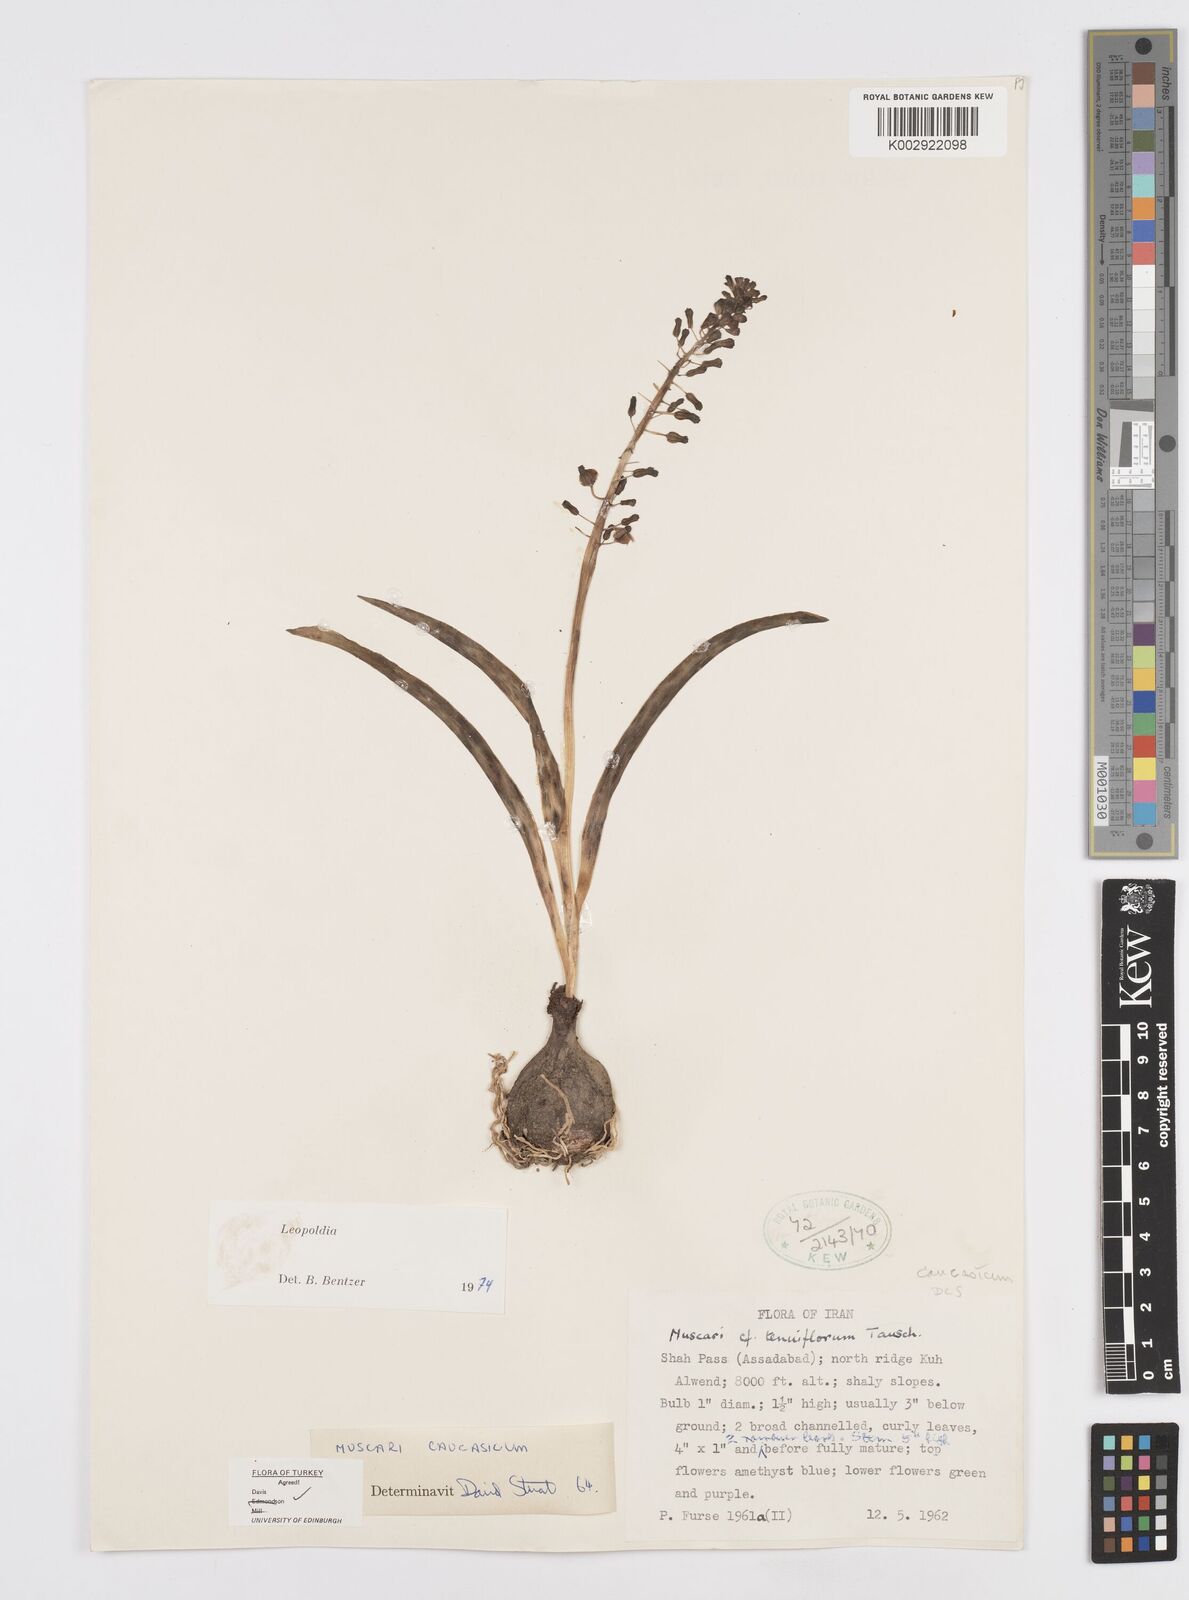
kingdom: Plantae
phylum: Tracheophyta
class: Liliopsida
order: Asparagales
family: Asparagaceae
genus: Muscari
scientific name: Muscari caucasicum
